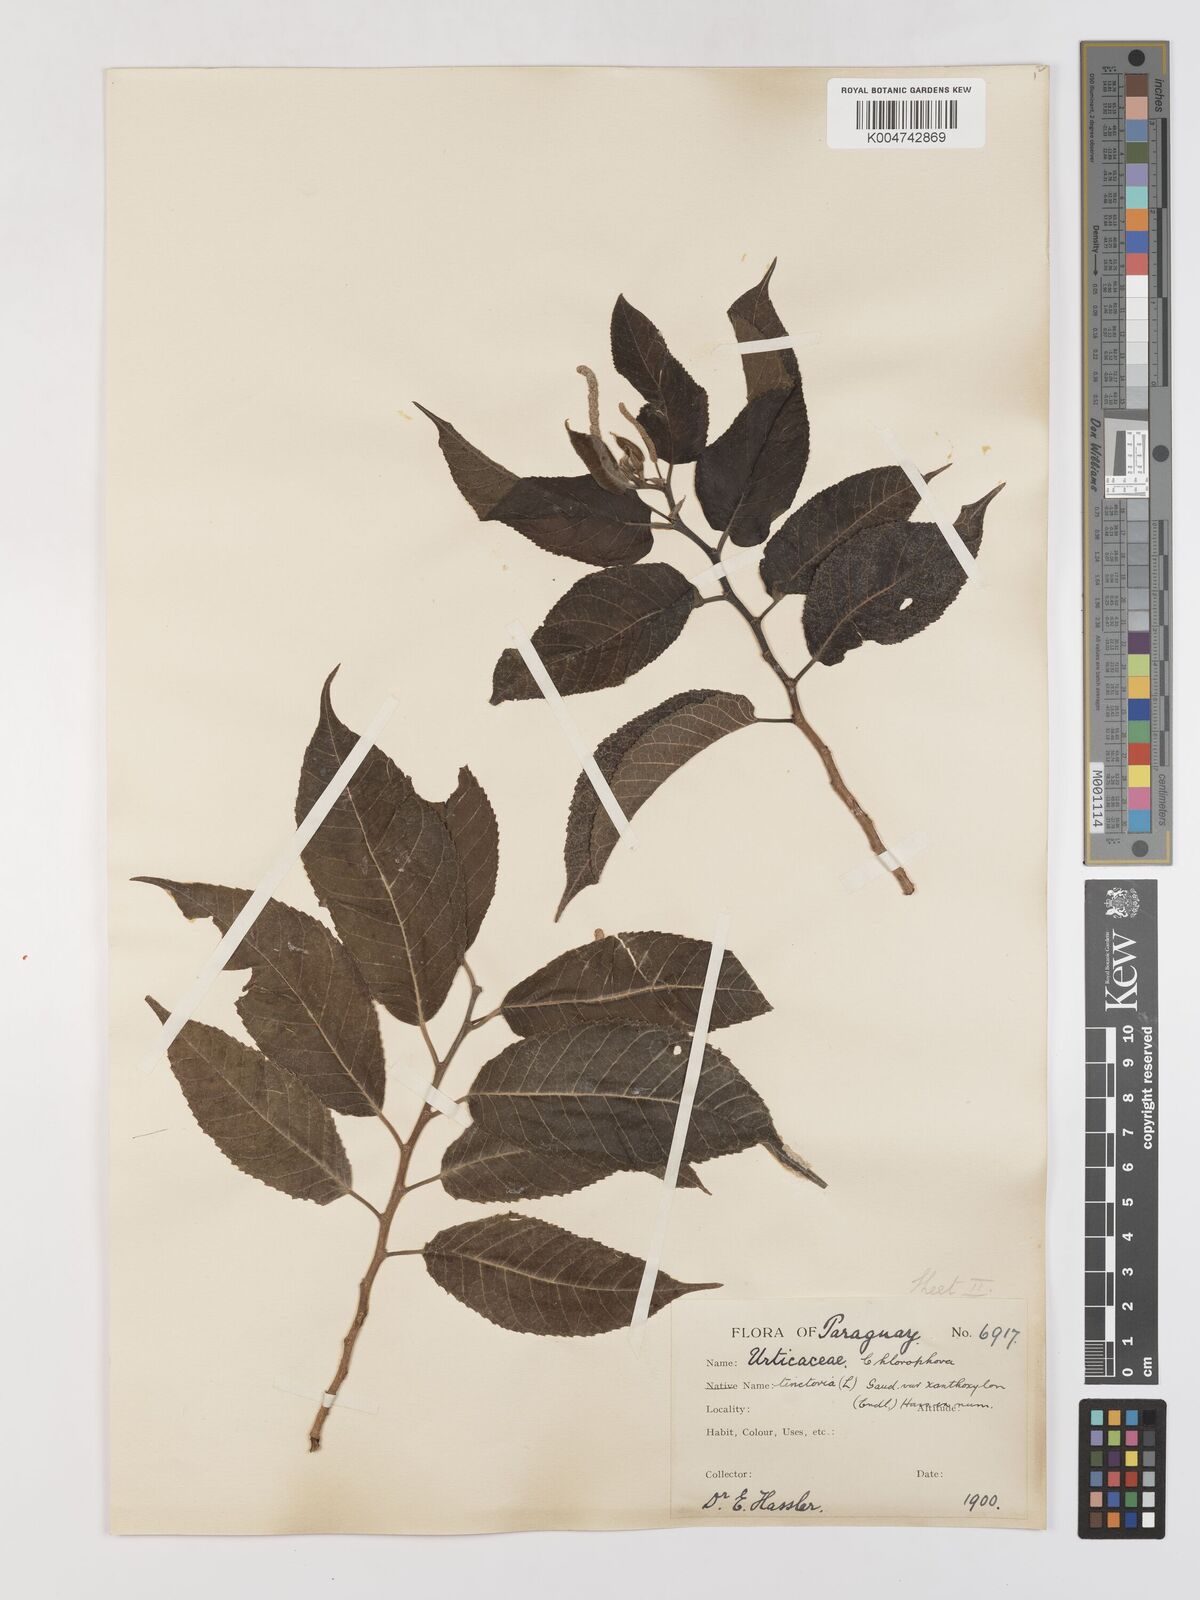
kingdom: Plantae
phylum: Tracheophyta
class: Magnoliopsida
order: Rosales
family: Moraceae
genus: Maclura
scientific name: Maclura tinctoria
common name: Old fustic
